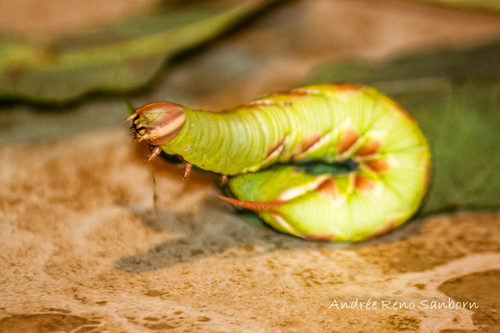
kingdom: Animalia
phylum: Arthropoda
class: Insecta
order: Lepidoptera
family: Sphingidae
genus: Ceratomia
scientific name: Ceratomia undulosa
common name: Waved sphinx
